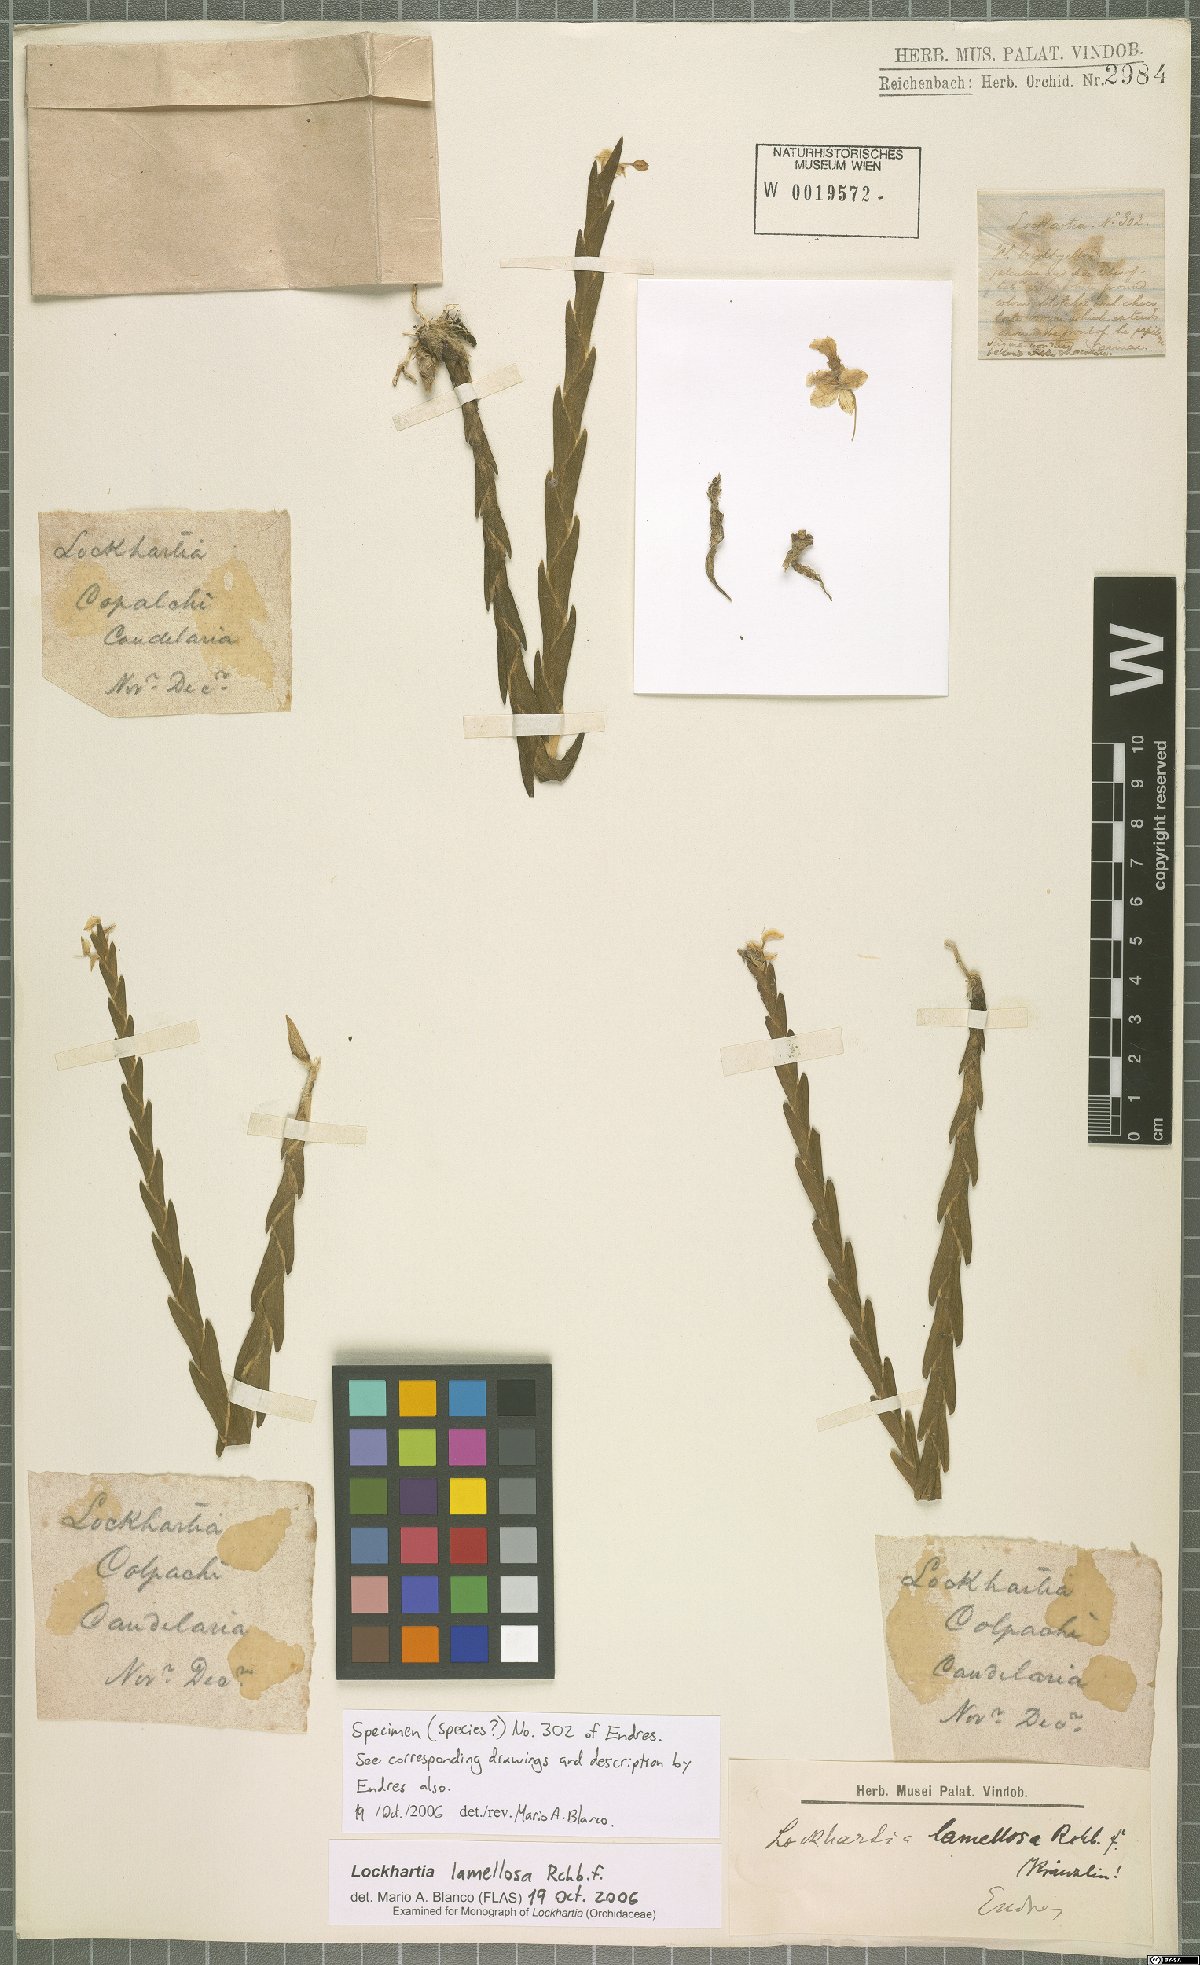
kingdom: Plantae
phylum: Tracheophyta
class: Liliopsida
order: Asparagales
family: Orchidaceae
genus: Lockhartia
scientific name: Lockhartia oerstedii
